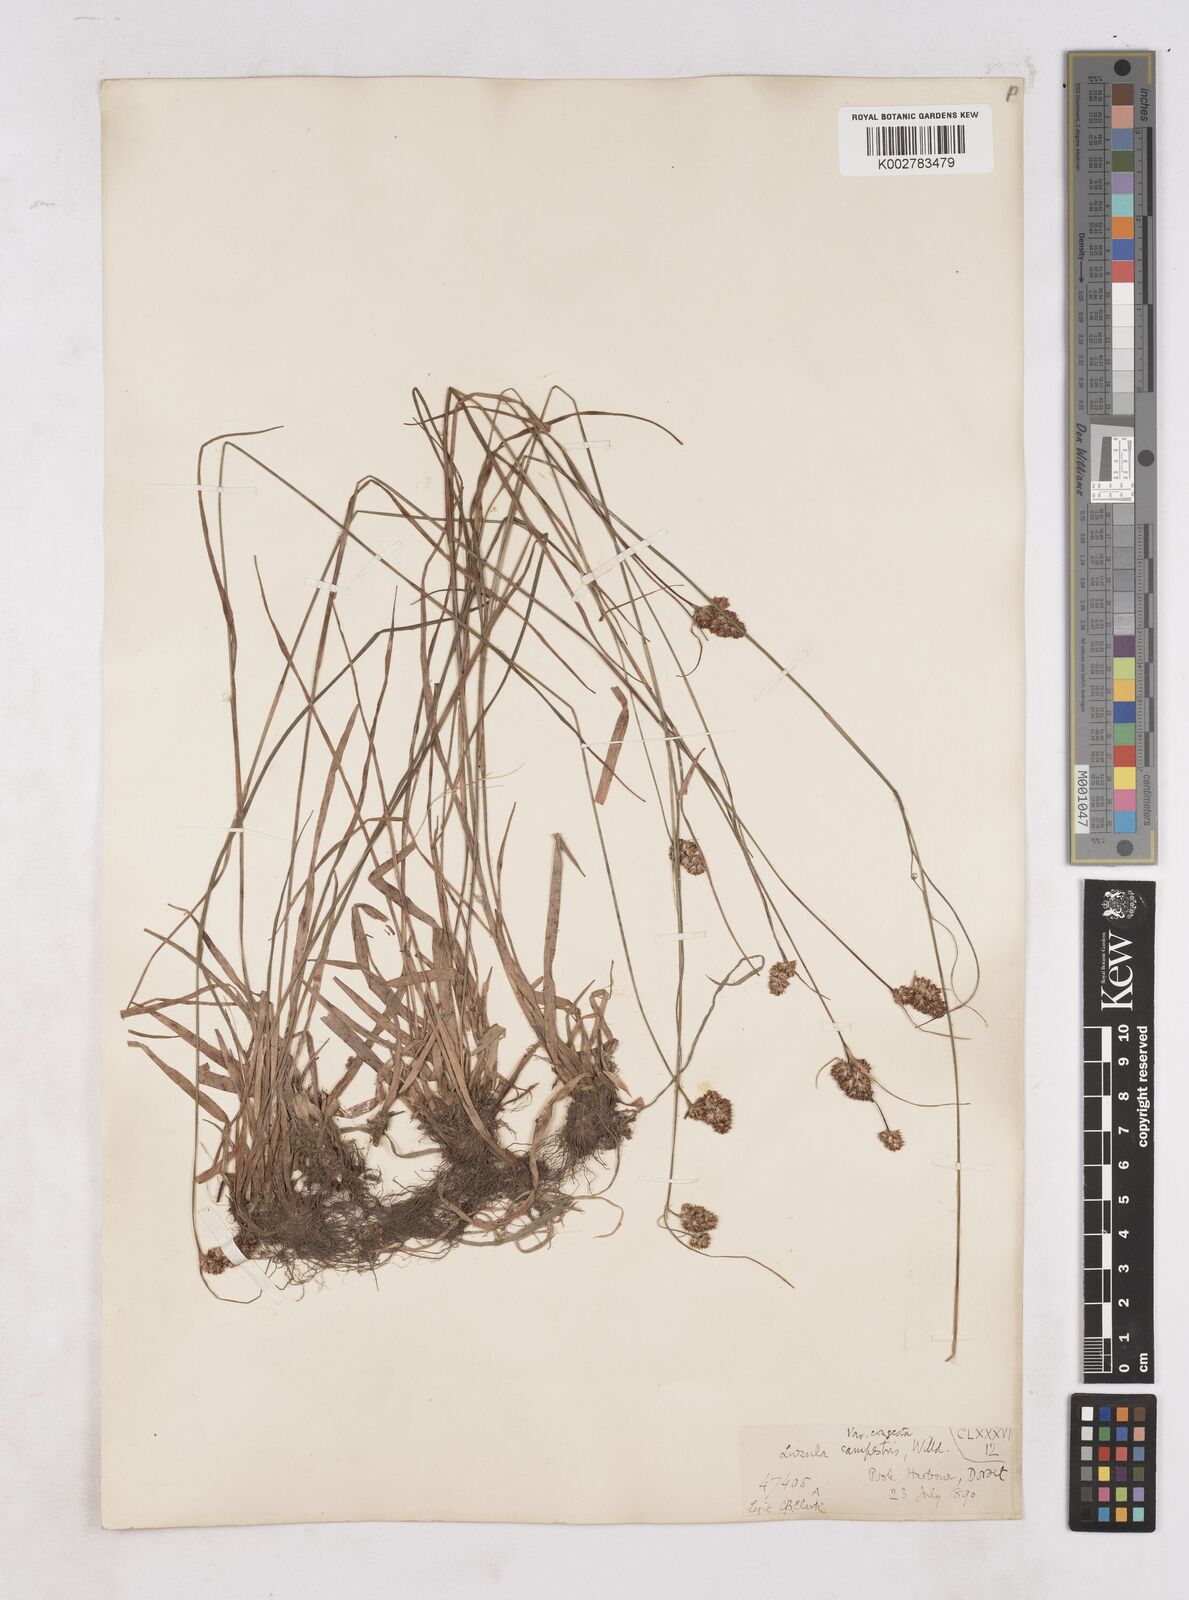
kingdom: Plantae
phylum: Tracheophyta
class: Liliopsida
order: Poales
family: Juncaceae
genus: Luzula
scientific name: Luzula campestris
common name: Field wood-rush
